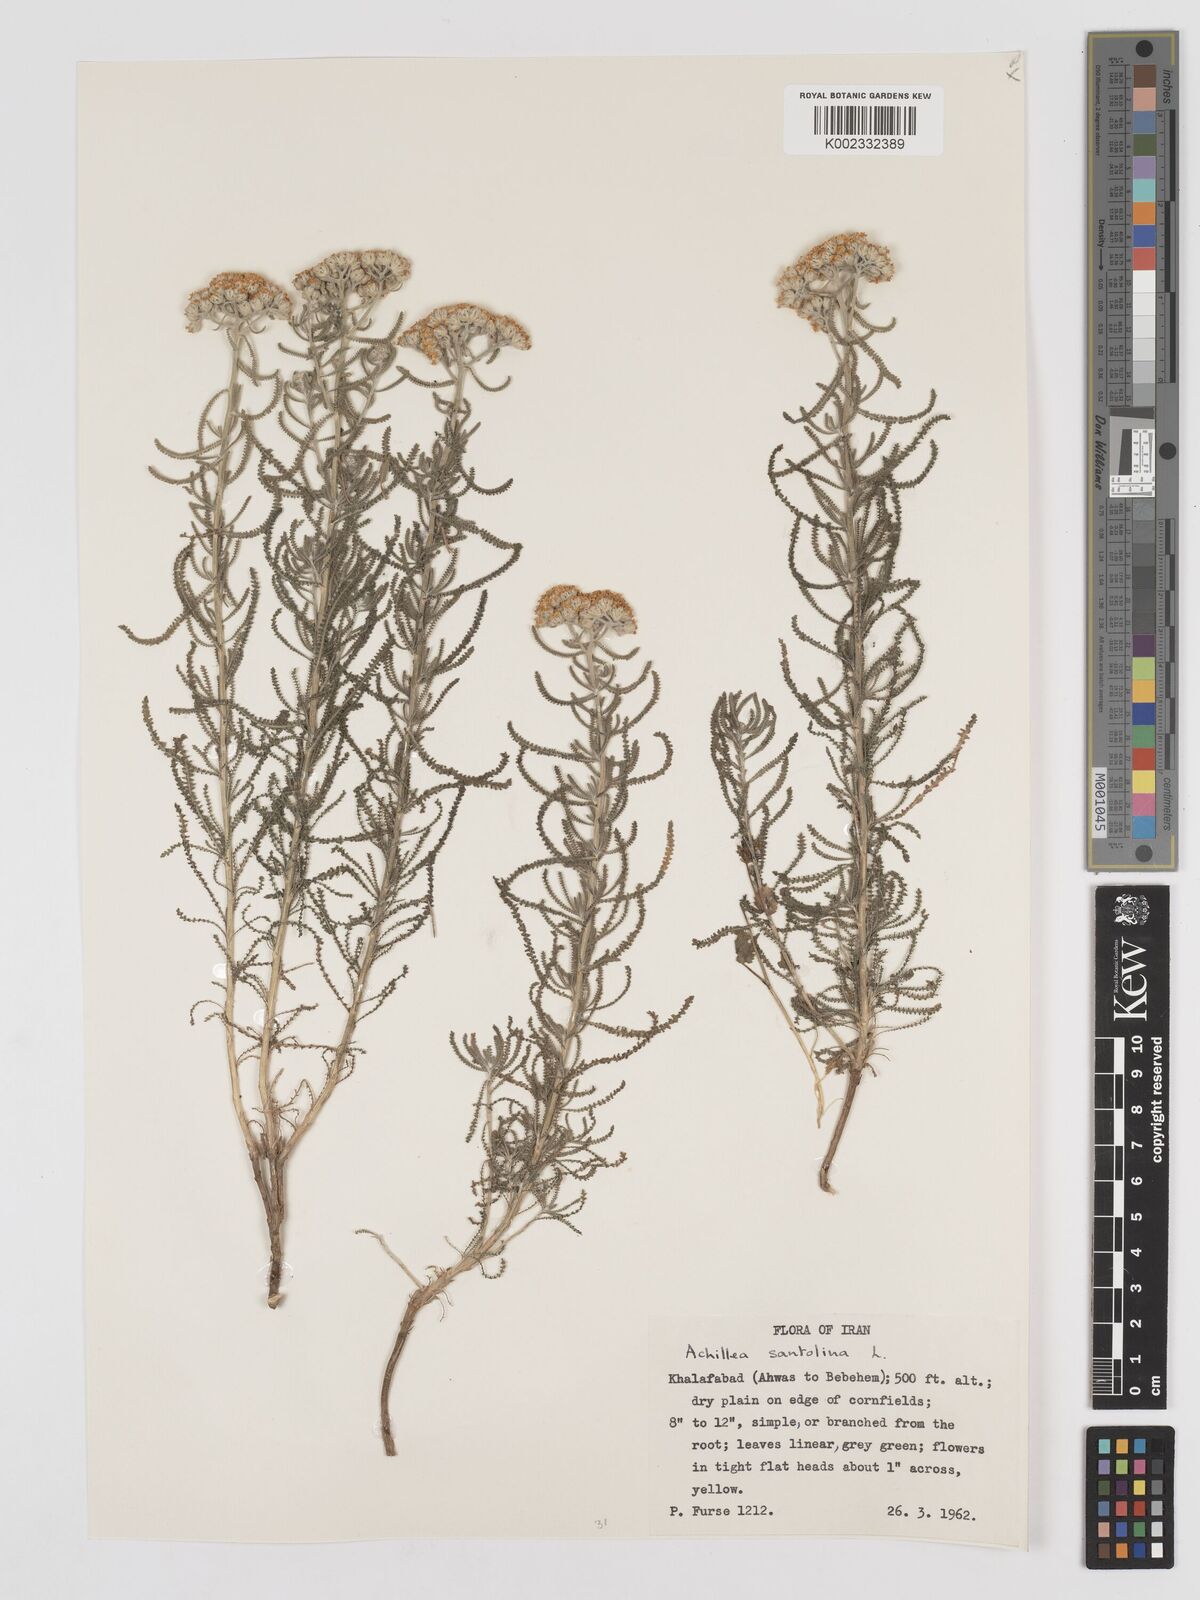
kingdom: Plantae
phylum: Tracheophyta
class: Magnoliopsida
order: Asterales
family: Asteraceae
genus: Achillea
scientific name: Achillea cretica
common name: Chamomile-leaved lavender-cotton
